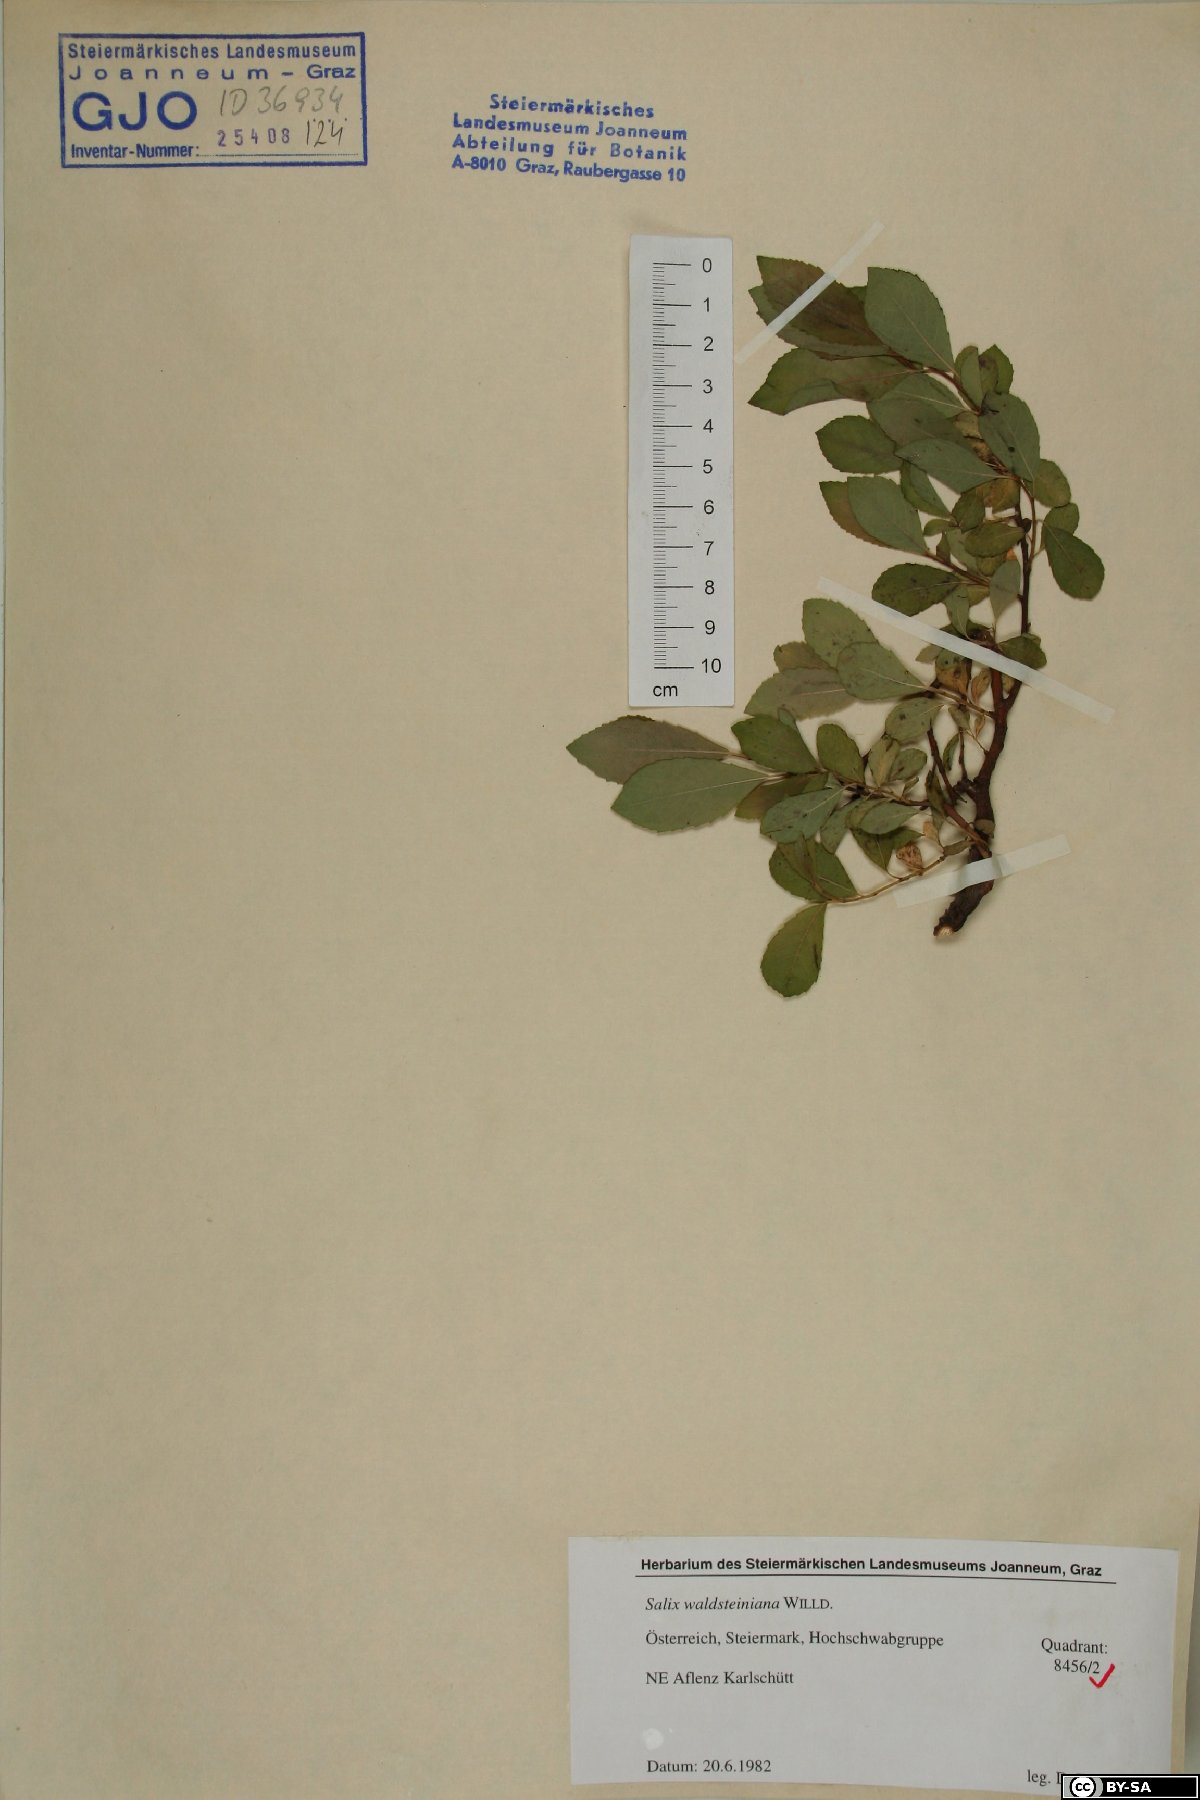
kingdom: Plantae
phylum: Tracheophyta
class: Magnoliopsida
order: Malpighiales
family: Salicaceae
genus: Salix
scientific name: Salix waldsteiniana
